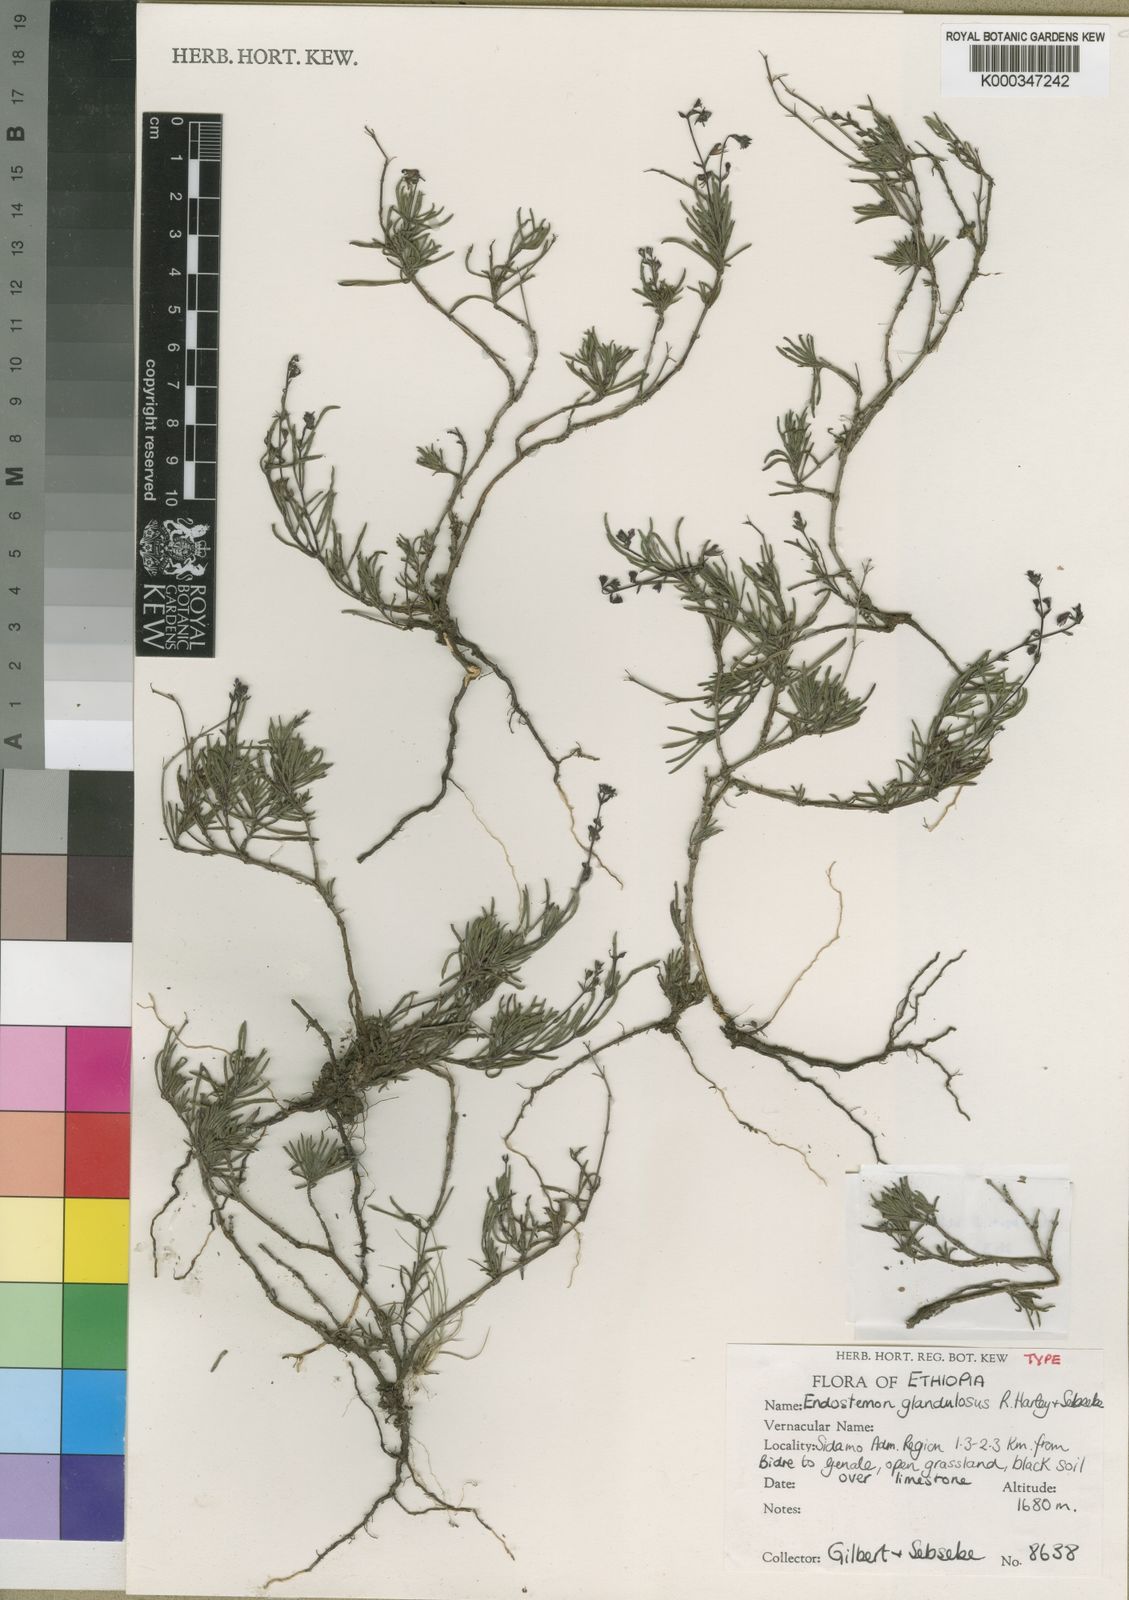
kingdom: Plantae
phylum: Tracheophyta
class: Magnoliopsida
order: Lamiales
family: Lamiaceae
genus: Endostemon
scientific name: Endostemon glandulosus
